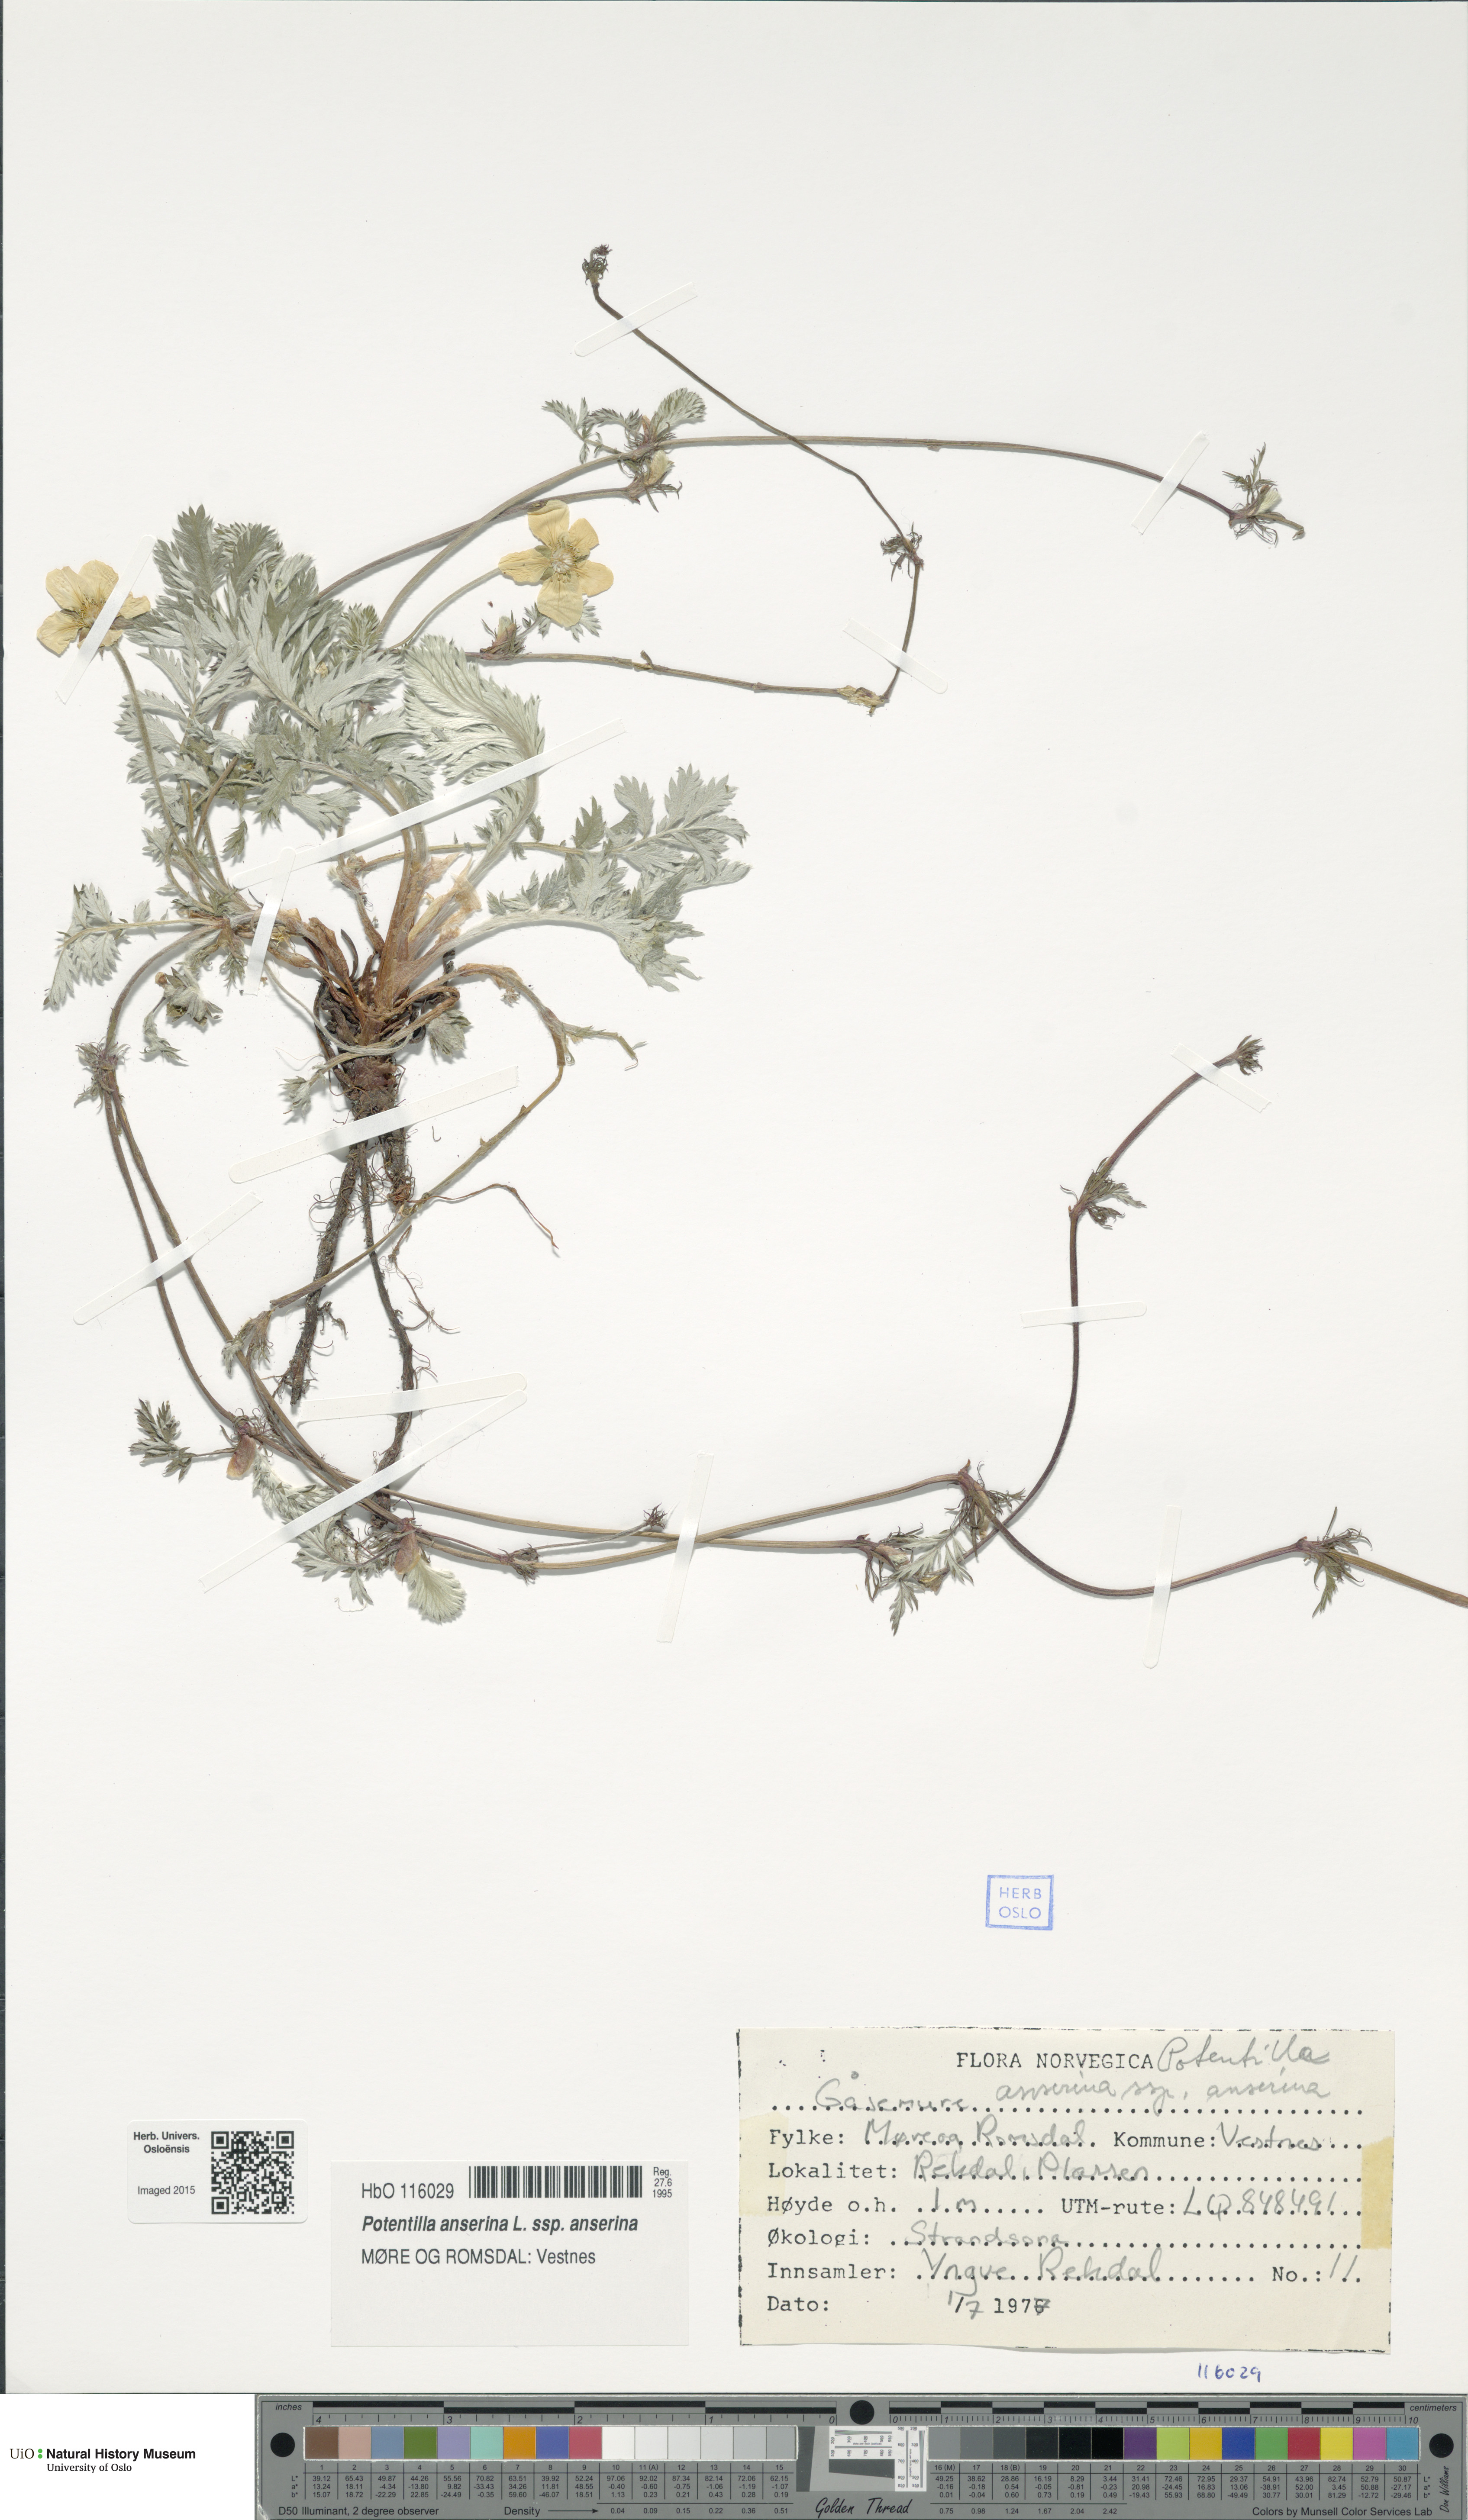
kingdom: Plantae
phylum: Tracheophyta
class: Magnoliopsida
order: Rosales
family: Rosaceae
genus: Argentina
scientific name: Argentina anserina
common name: Common silverweed
